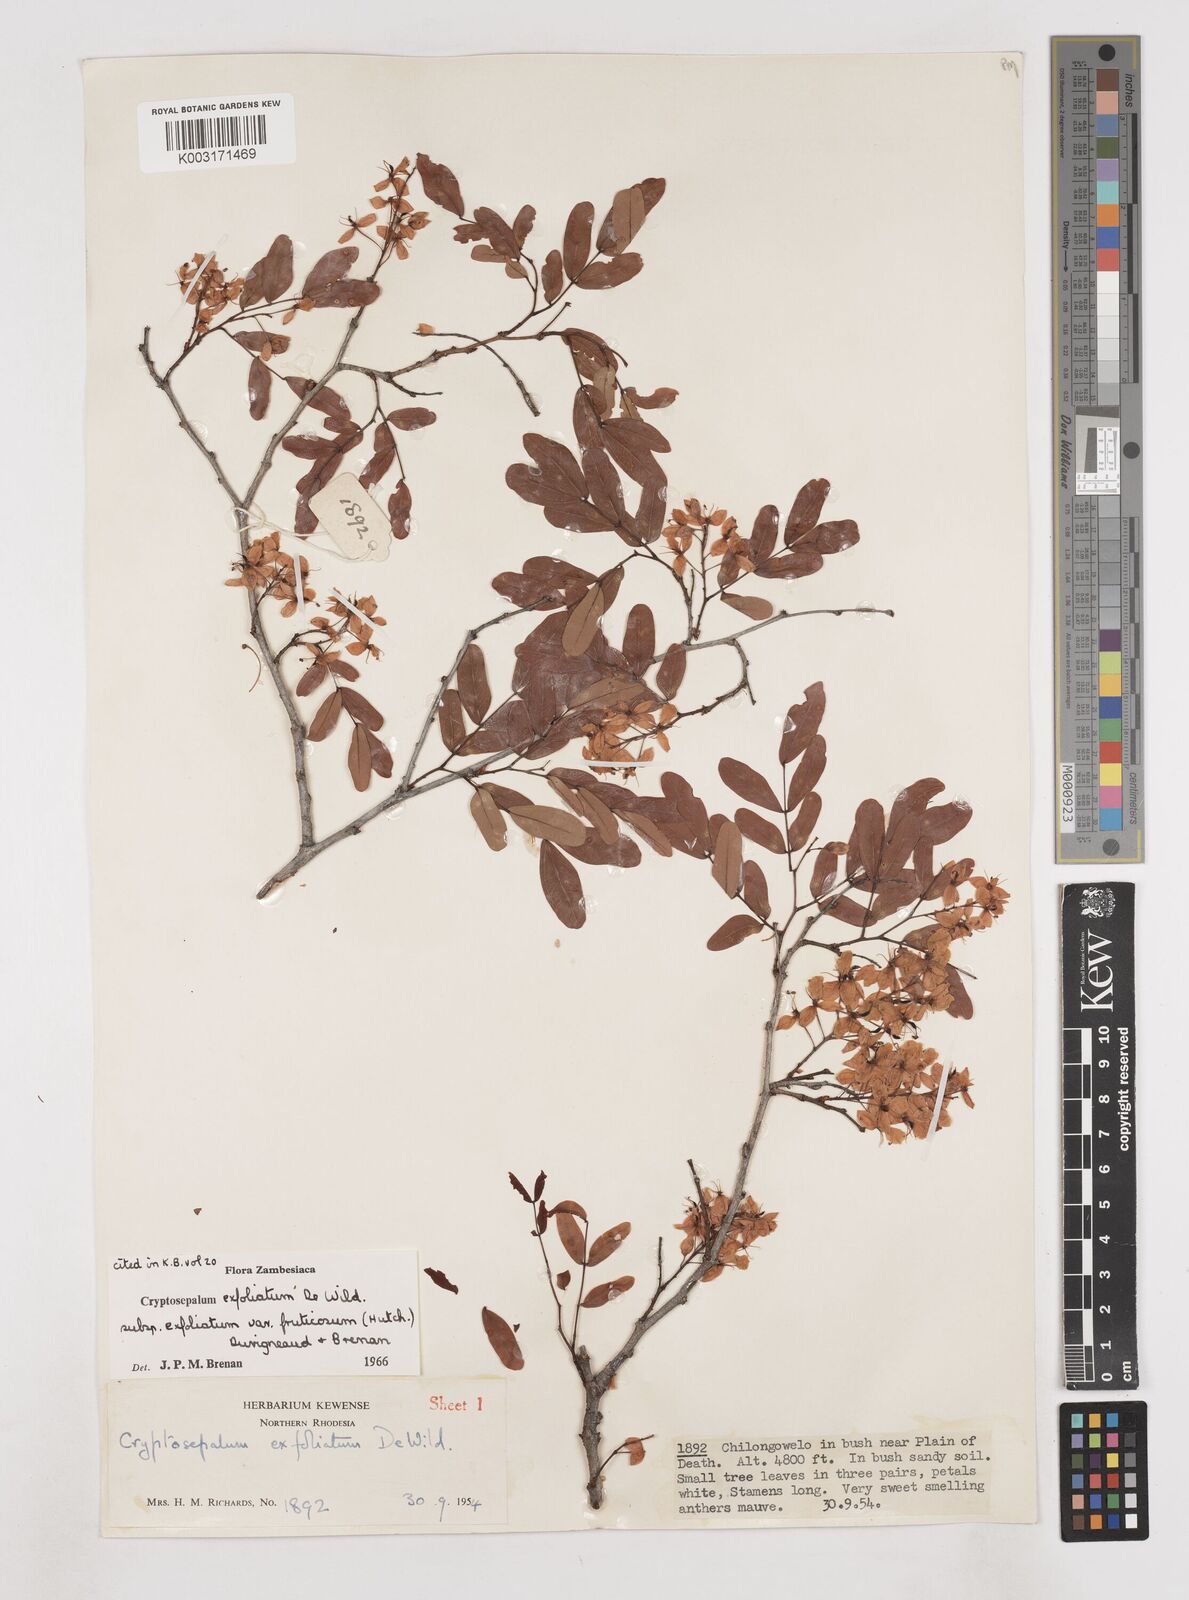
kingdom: Plantae
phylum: Tracheophyta
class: Magnoliopsida
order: Fabales
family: Fabaceae
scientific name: Fabaceae
